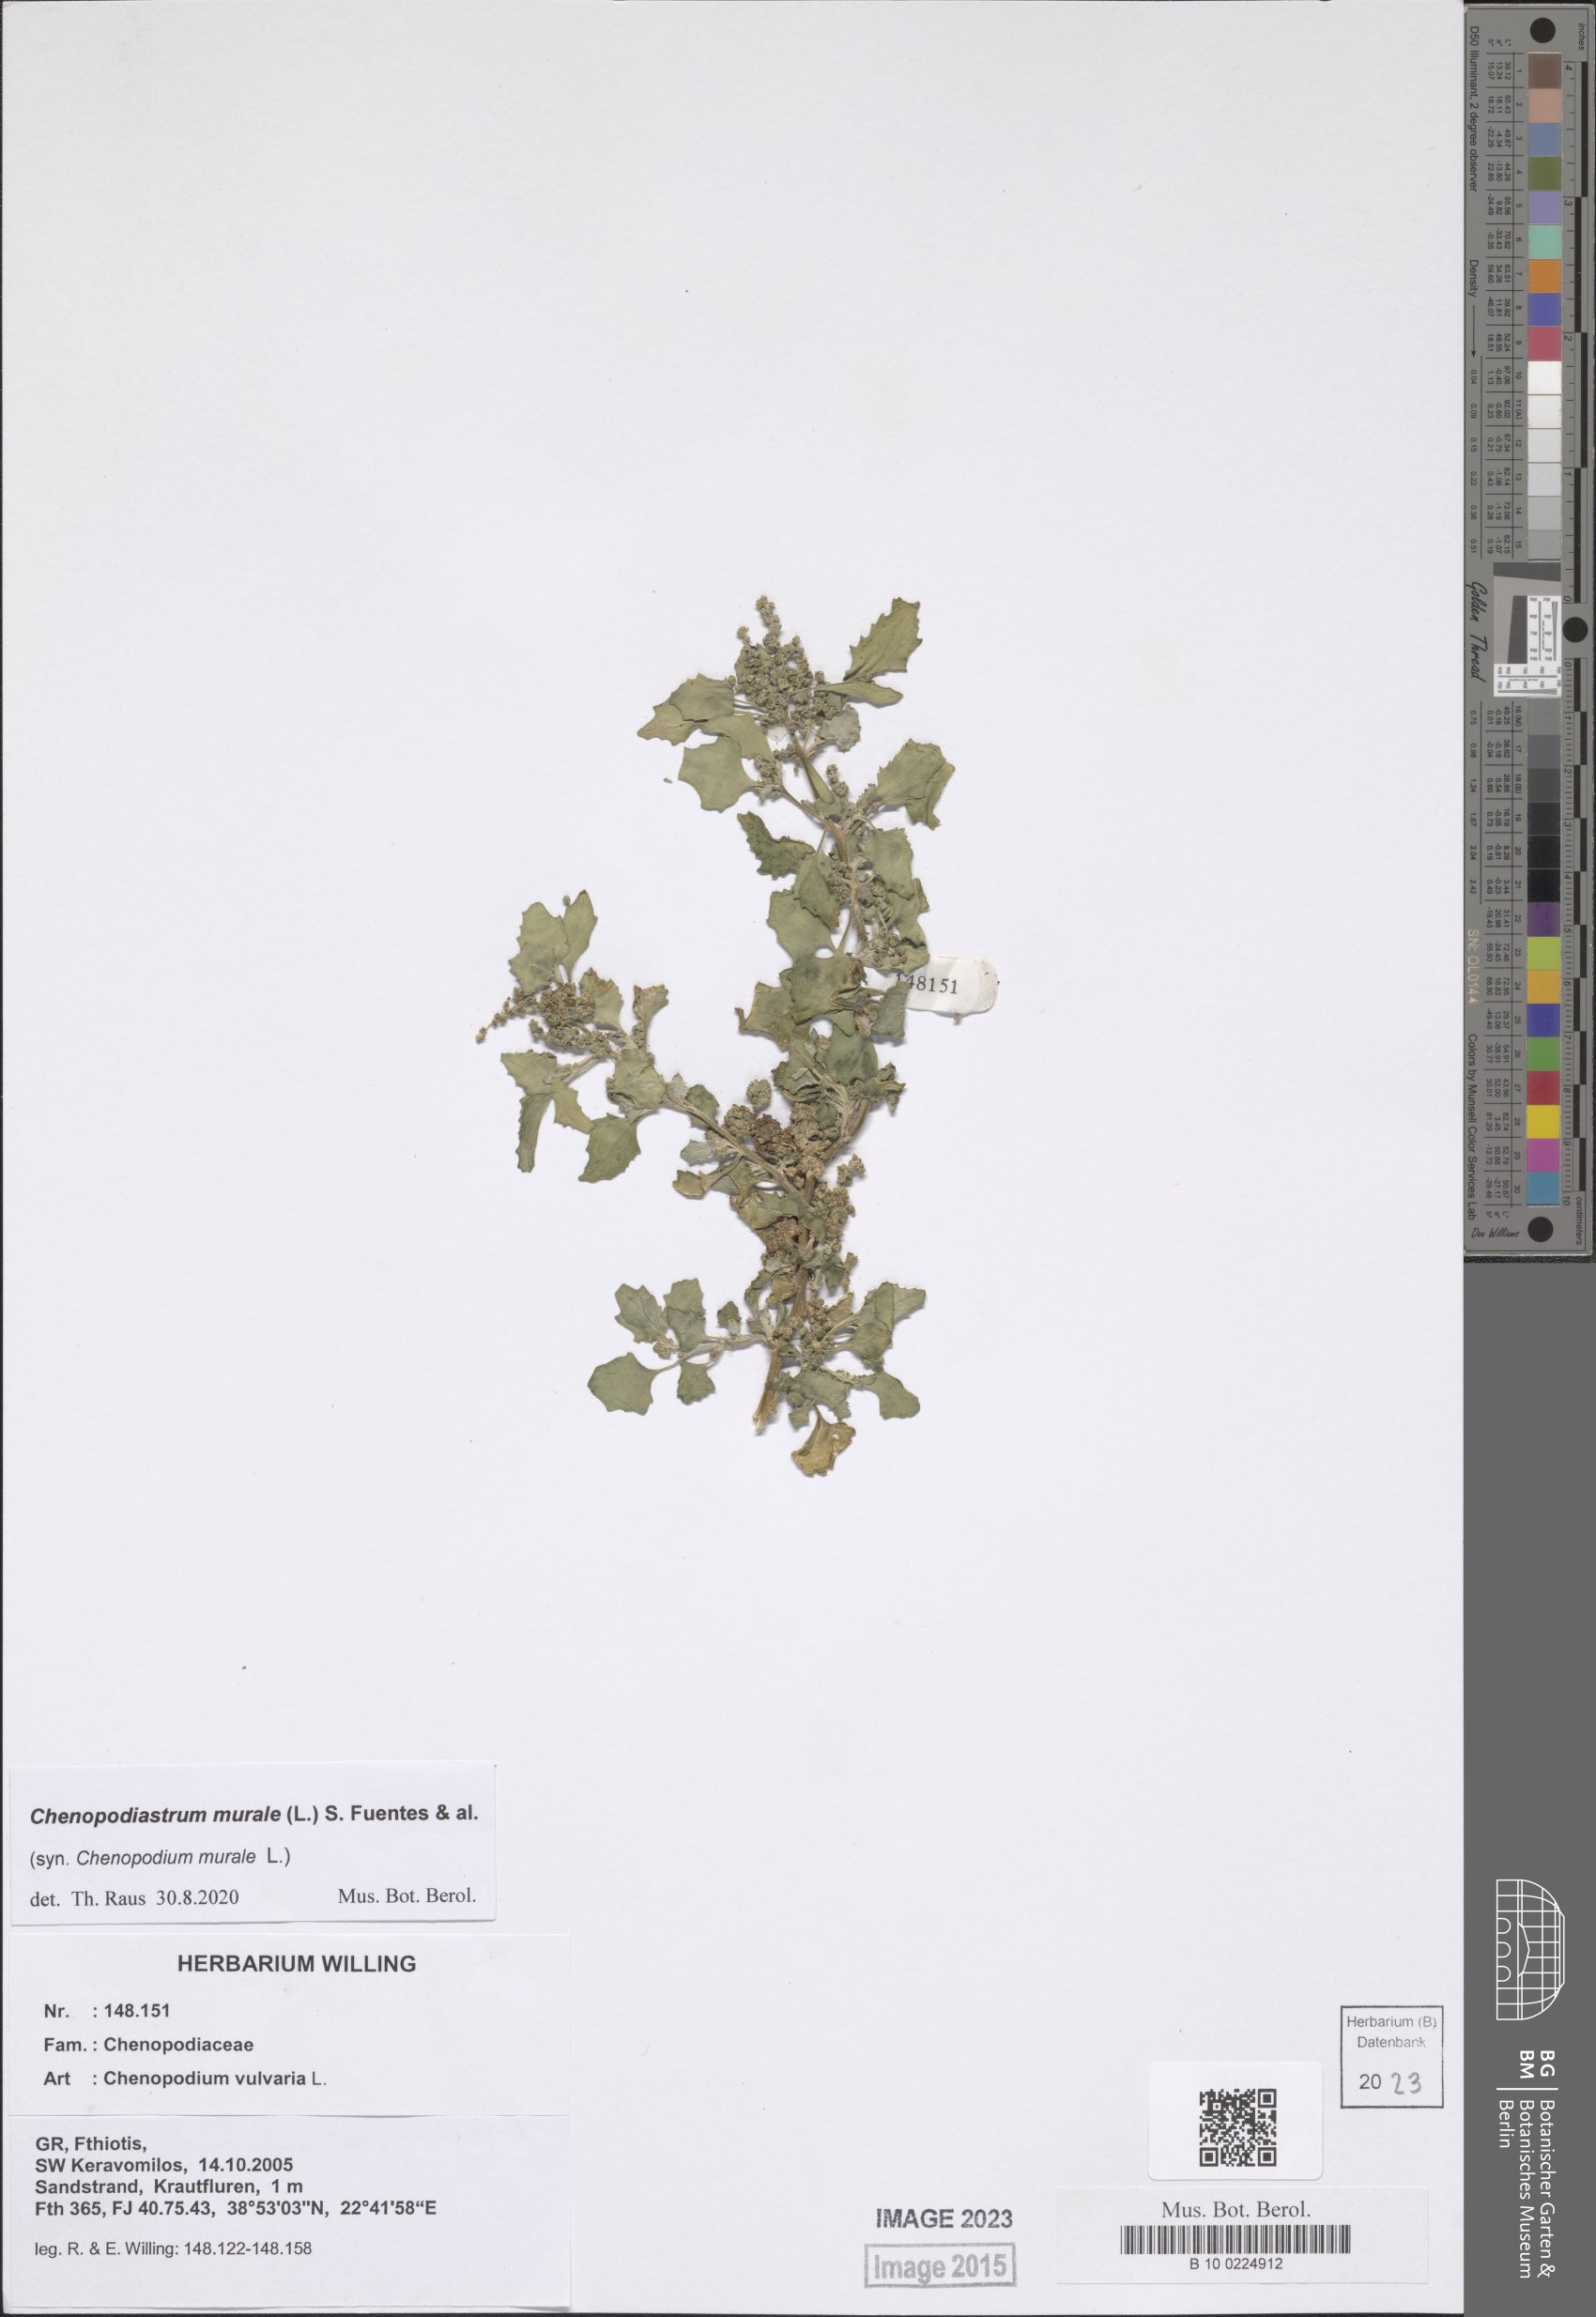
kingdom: Plantae
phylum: Tracheophyta
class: Magnoliopsida
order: Caryophyllales
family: Amaranthaceae
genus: Chenopodiastrum
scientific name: Chenopodiastrum murale
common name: Sowbane
